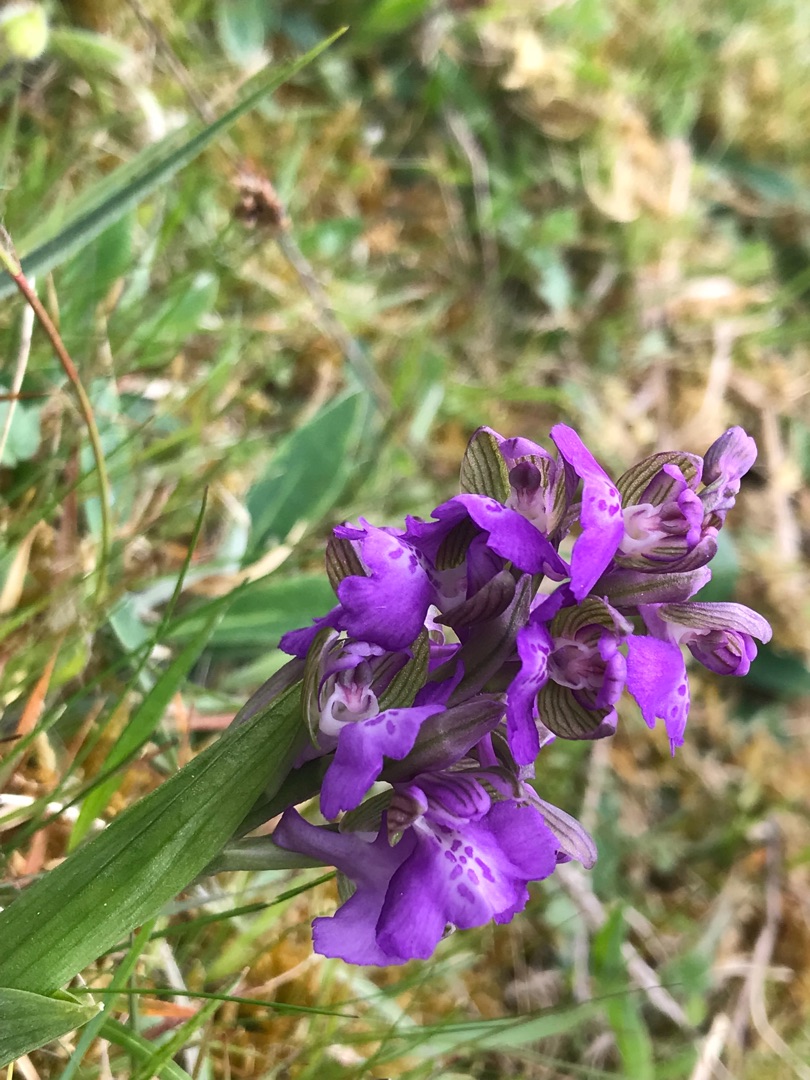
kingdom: Plantae
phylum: Tracheophyta
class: Liliopsida
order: Asparagales
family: Orchidaceae
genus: Anacamptis
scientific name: Anacamptis morio
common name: Salepgøgeurt
